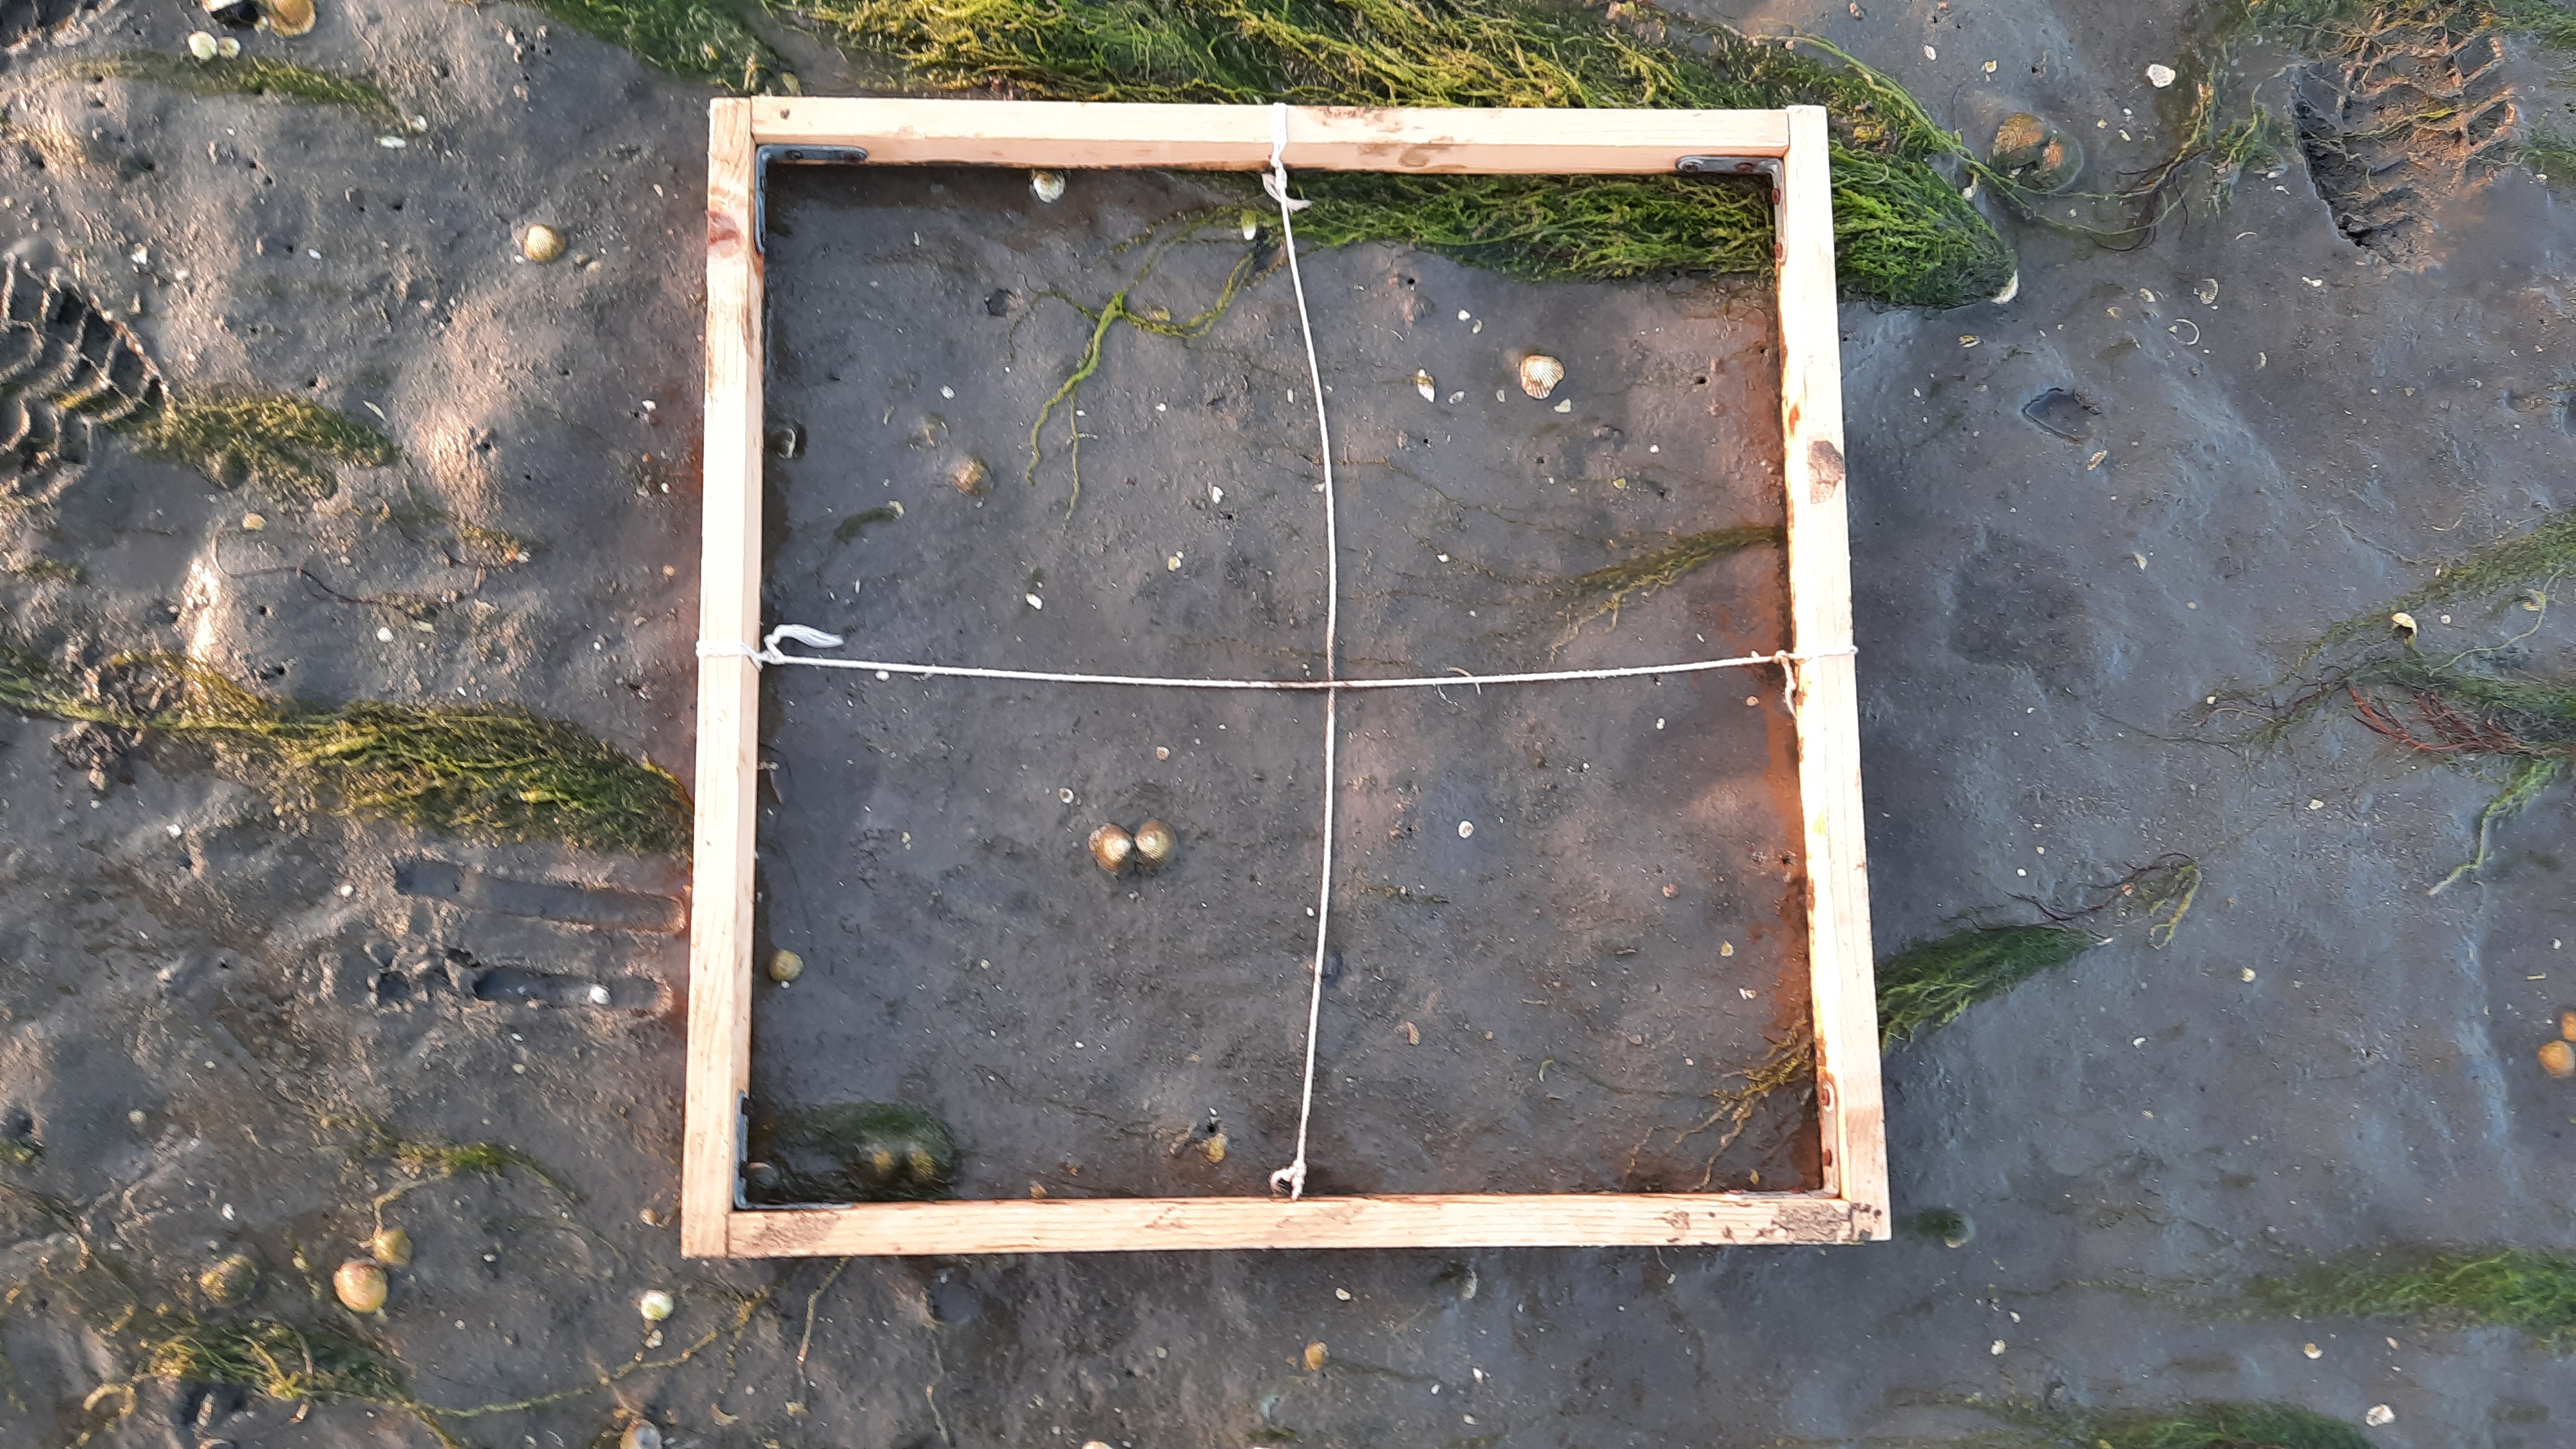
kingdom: Plantae
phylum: Chlorophyta
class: Ulvophyceae
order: Ulvales
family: Ulvaceae
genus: Ulva
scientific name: Ulva
